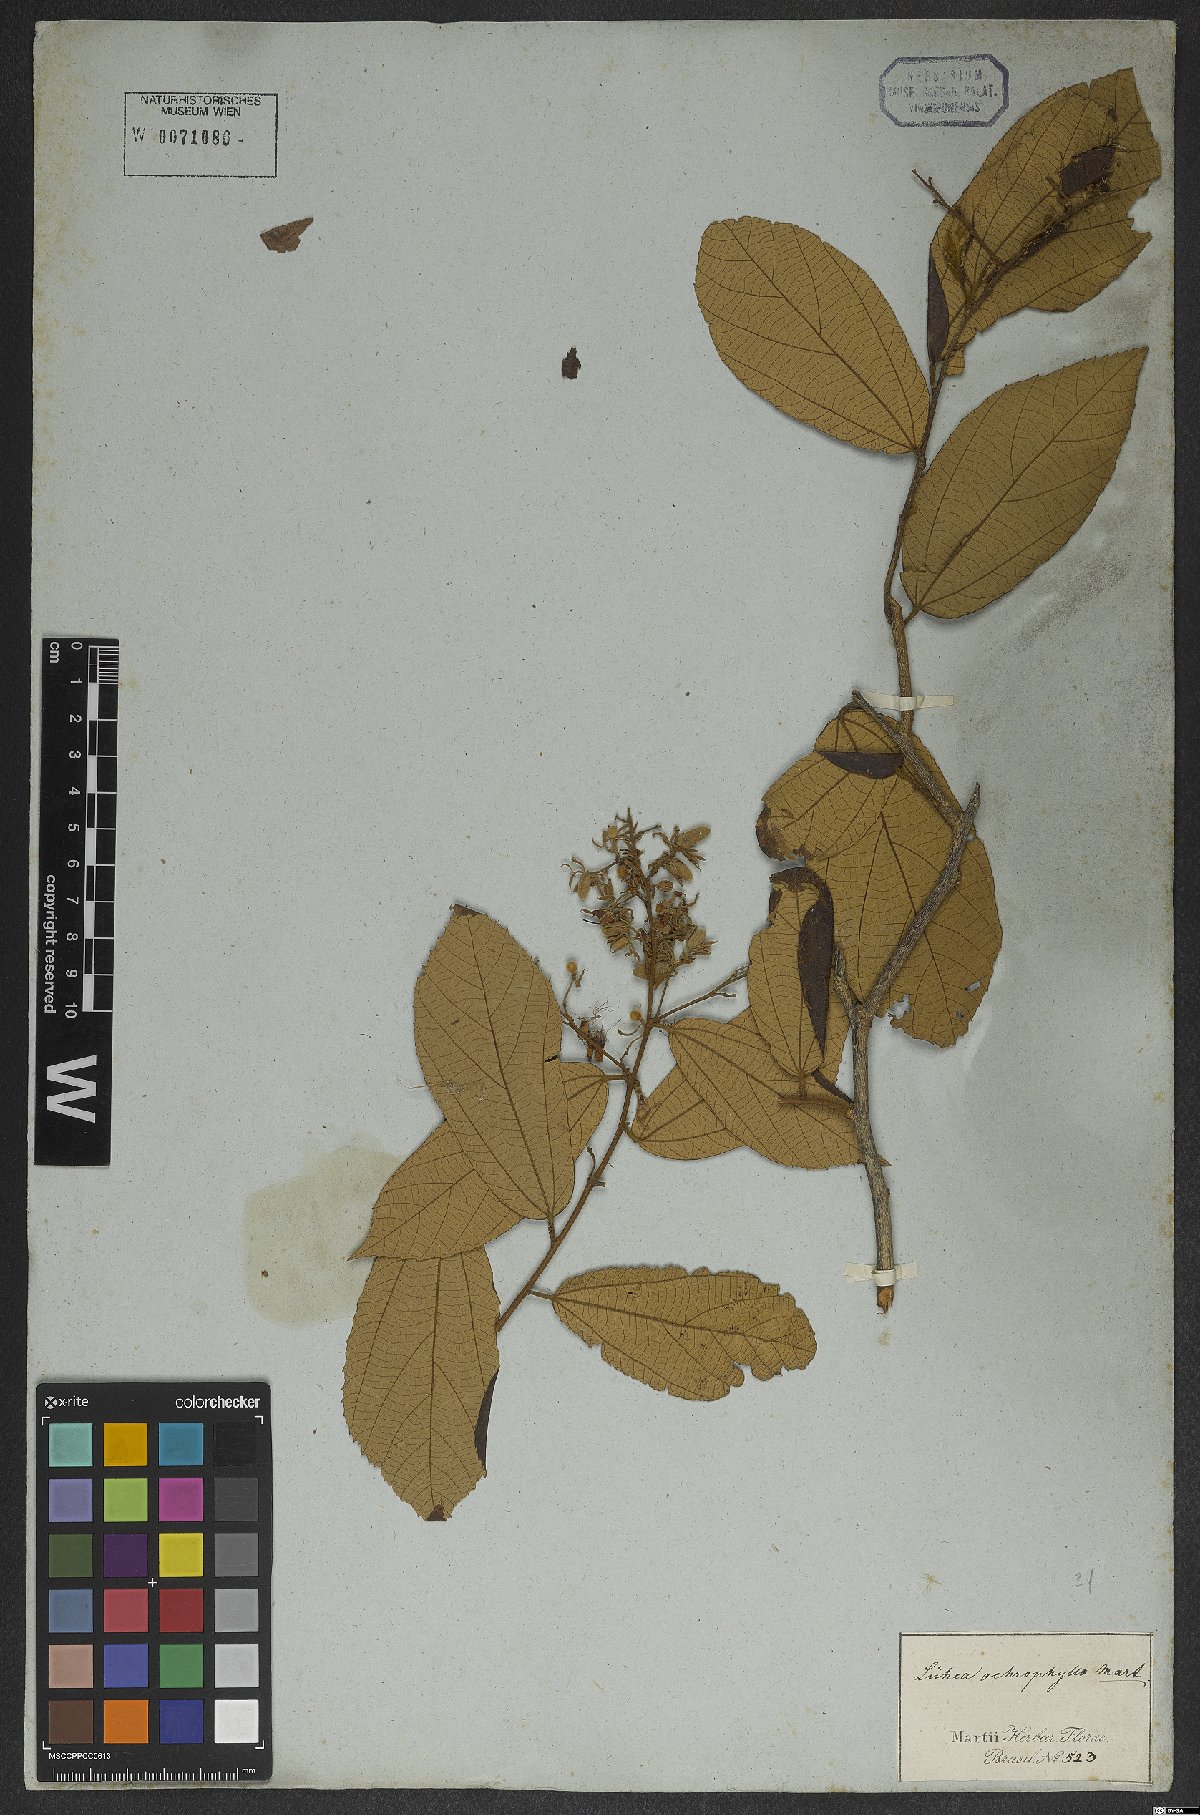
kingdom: Plantae
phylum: Tracheophyta
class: Magnoliopsida
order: Malvales
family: Malvaceae
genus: Luehea
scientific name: Luehea ochrophylla
